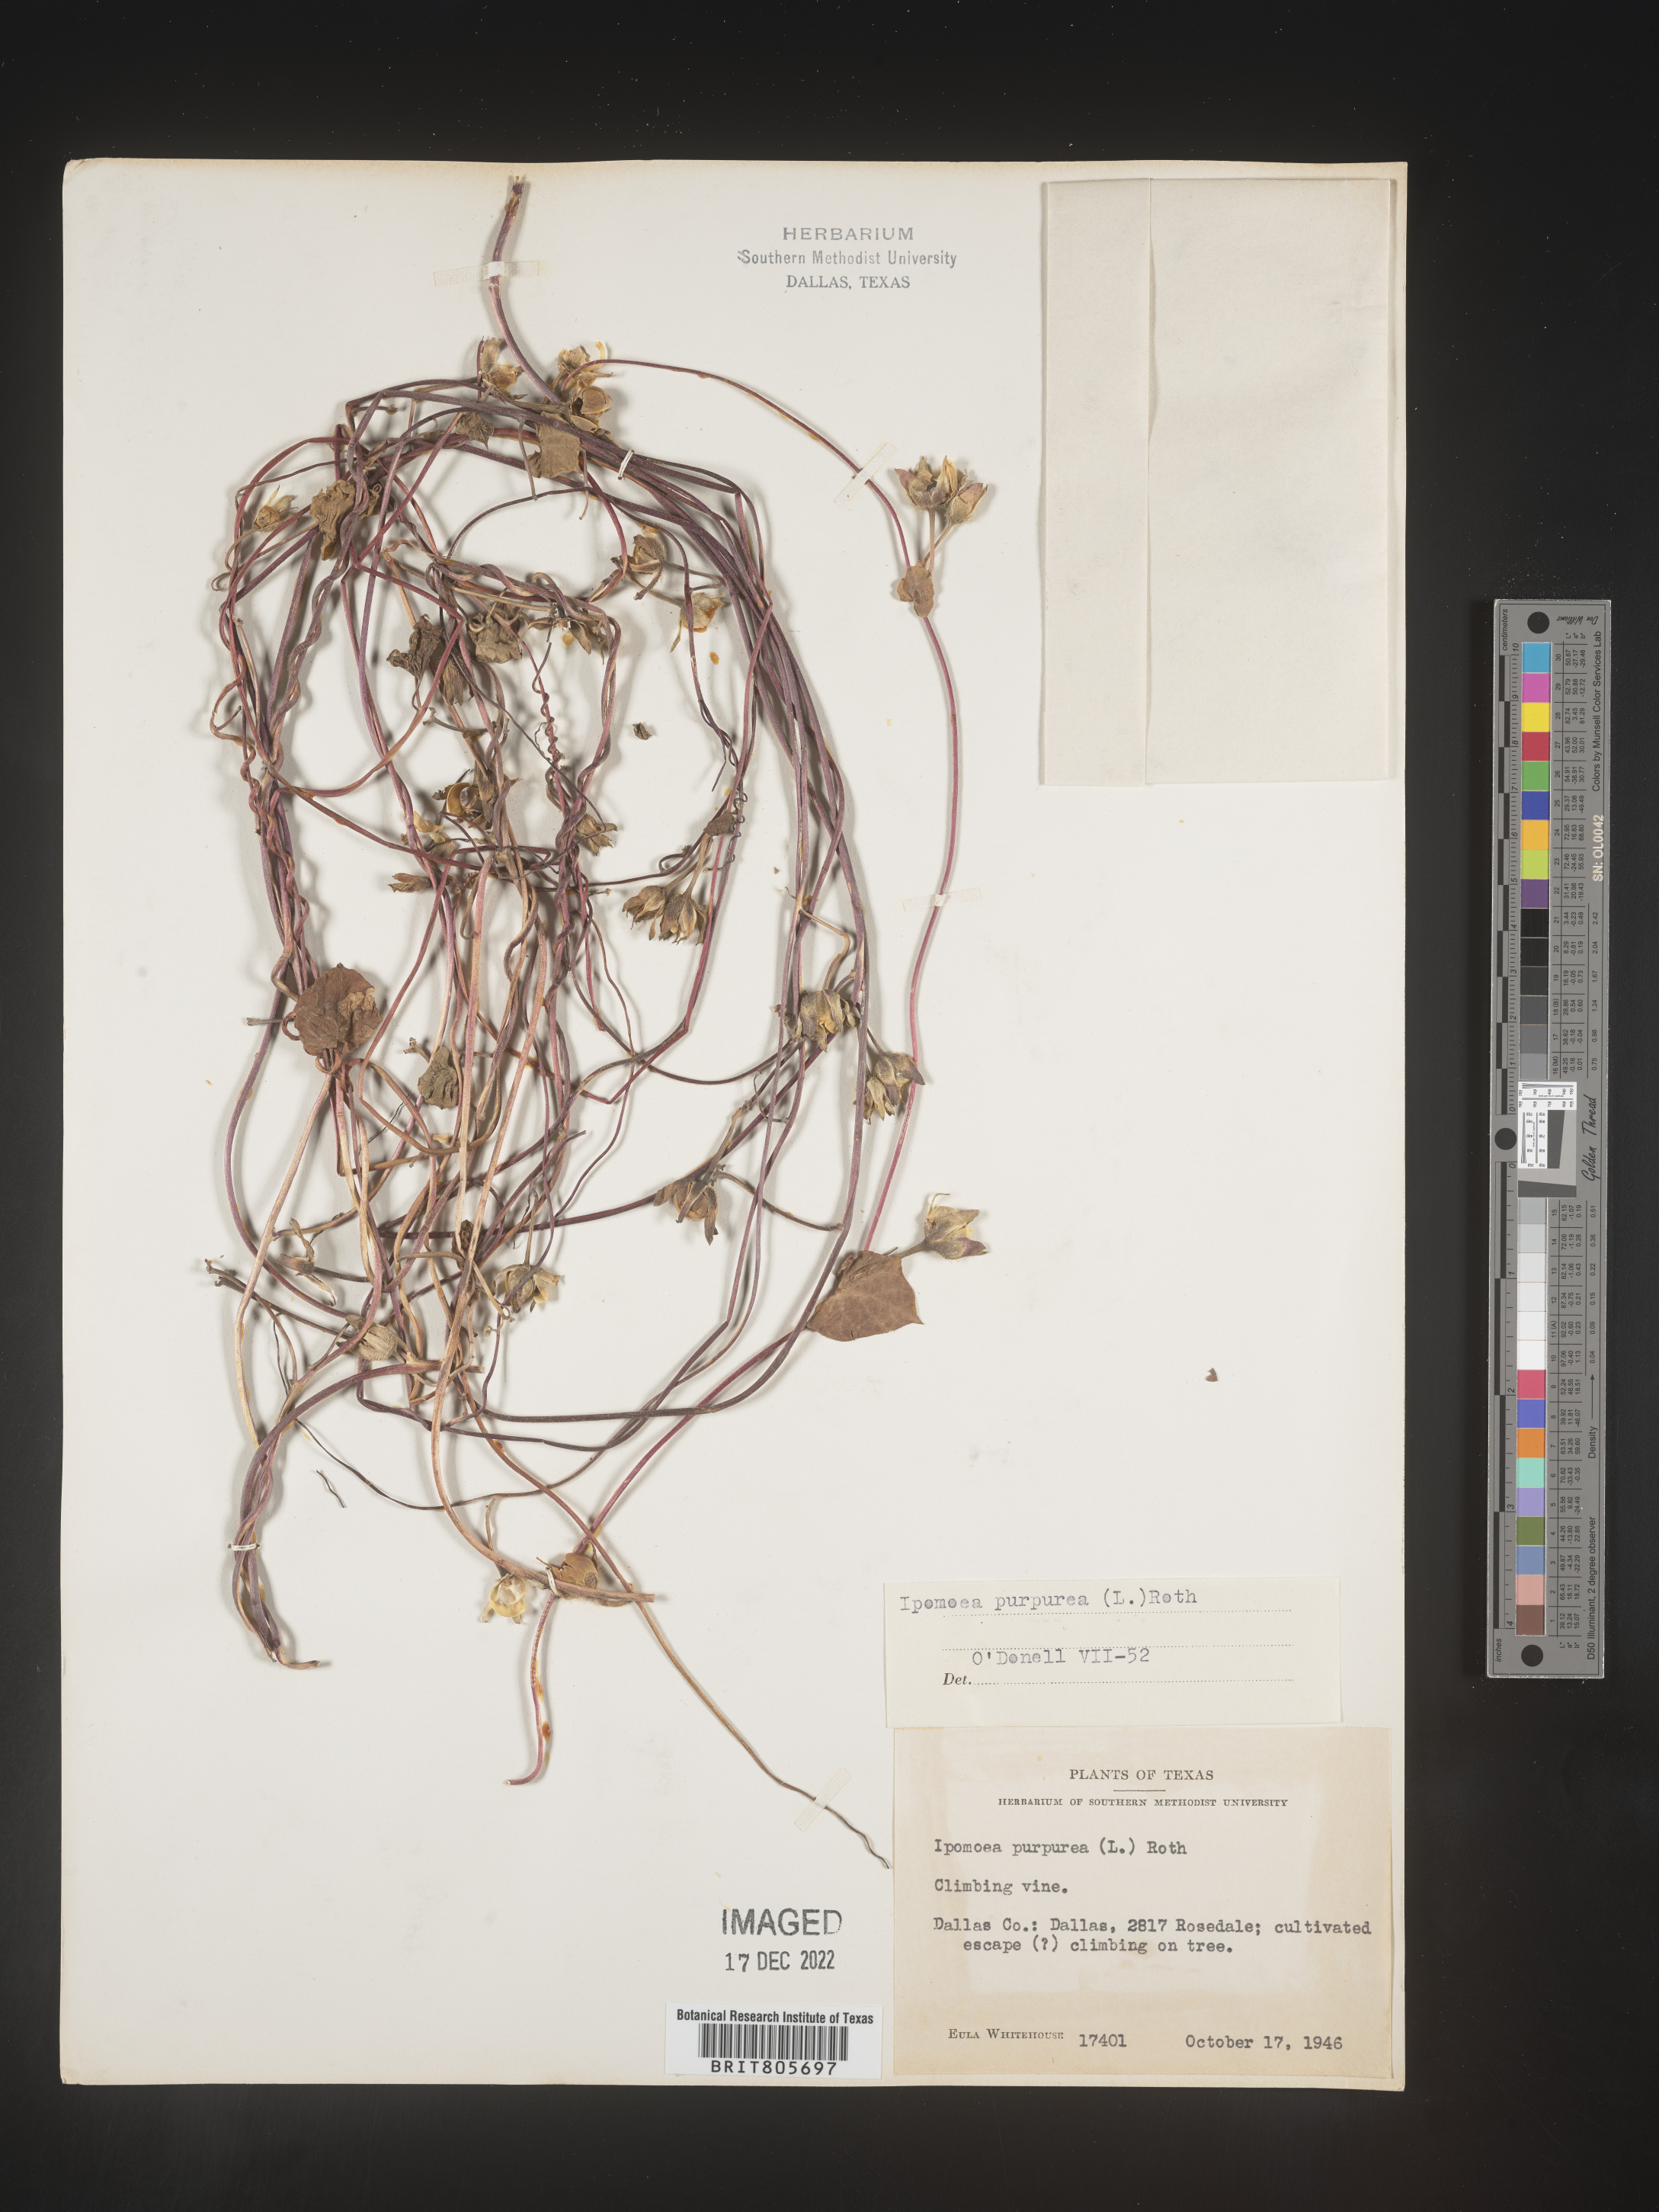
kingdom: Plantae
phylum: Tracheophyta
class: Magnoliopsida
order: Solanales
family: Convolvulaceae
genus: Ipomoea
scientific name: Ipomoea purpurea
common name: Common morning-glory
